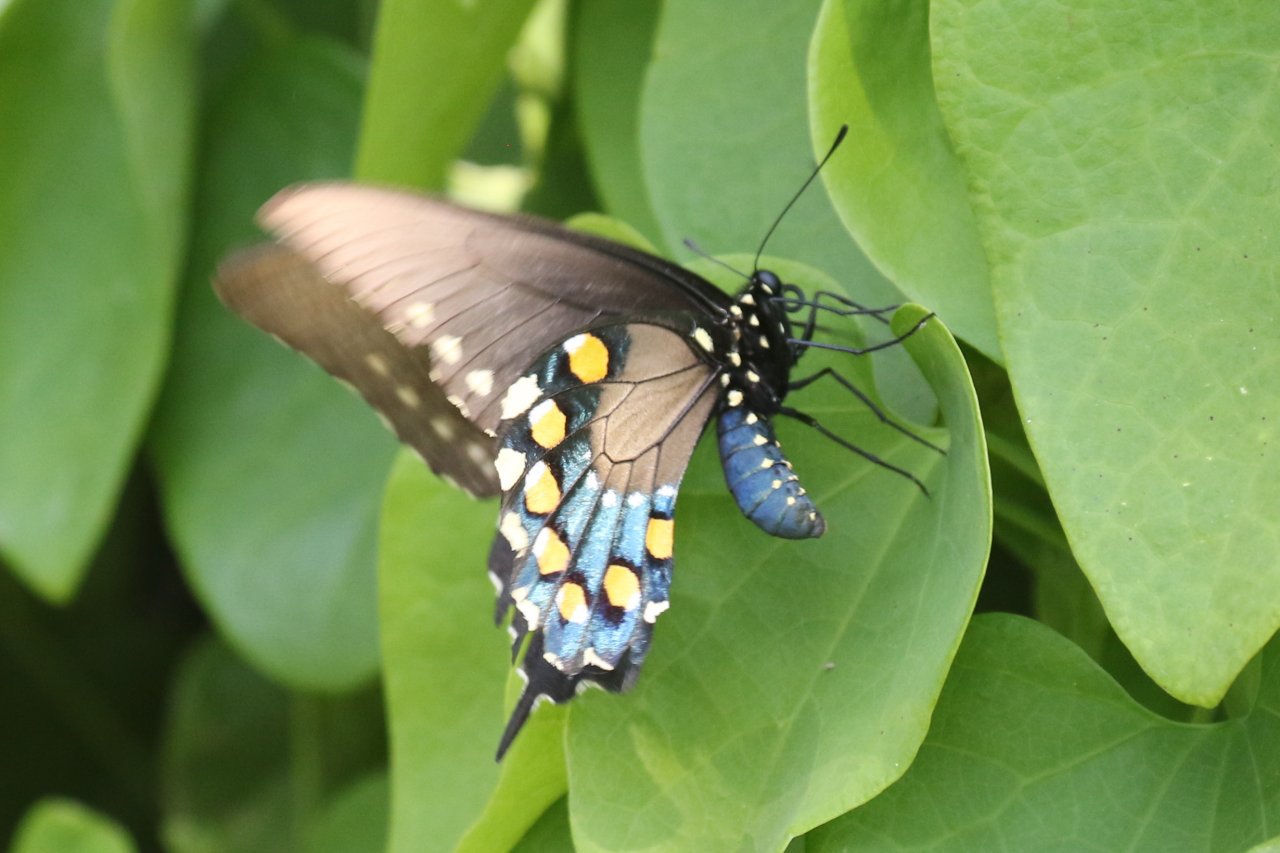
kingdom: Animalia
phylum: Arthropoda
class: Insecta
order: Lepidoptera
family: Papilionidae
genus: Battus
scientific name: Battus philenor
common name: Pipevine Swallowtail
